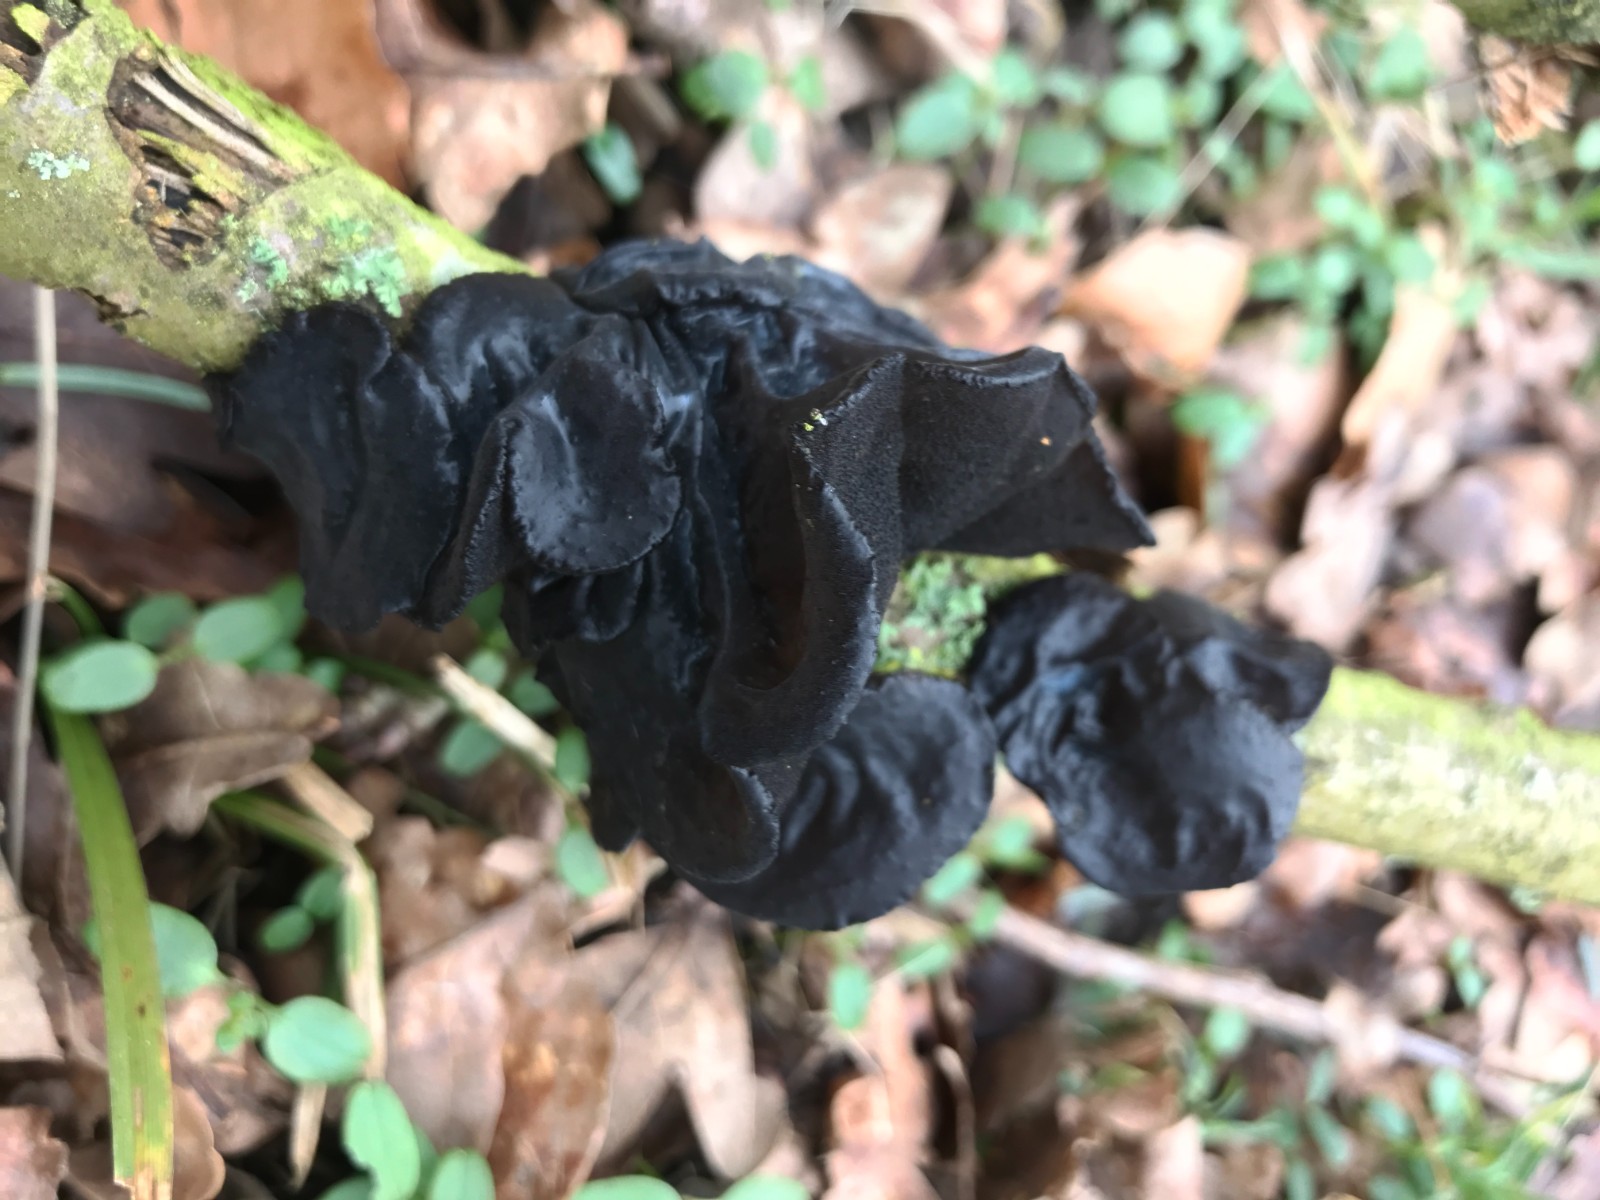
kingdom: Fungi
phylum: Basidiomycota
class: Agaricomycetes
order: Auriculariales
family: Auriculariaceae
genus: Exidia
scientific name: Exidia glandulosa
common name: ege-bævretop
